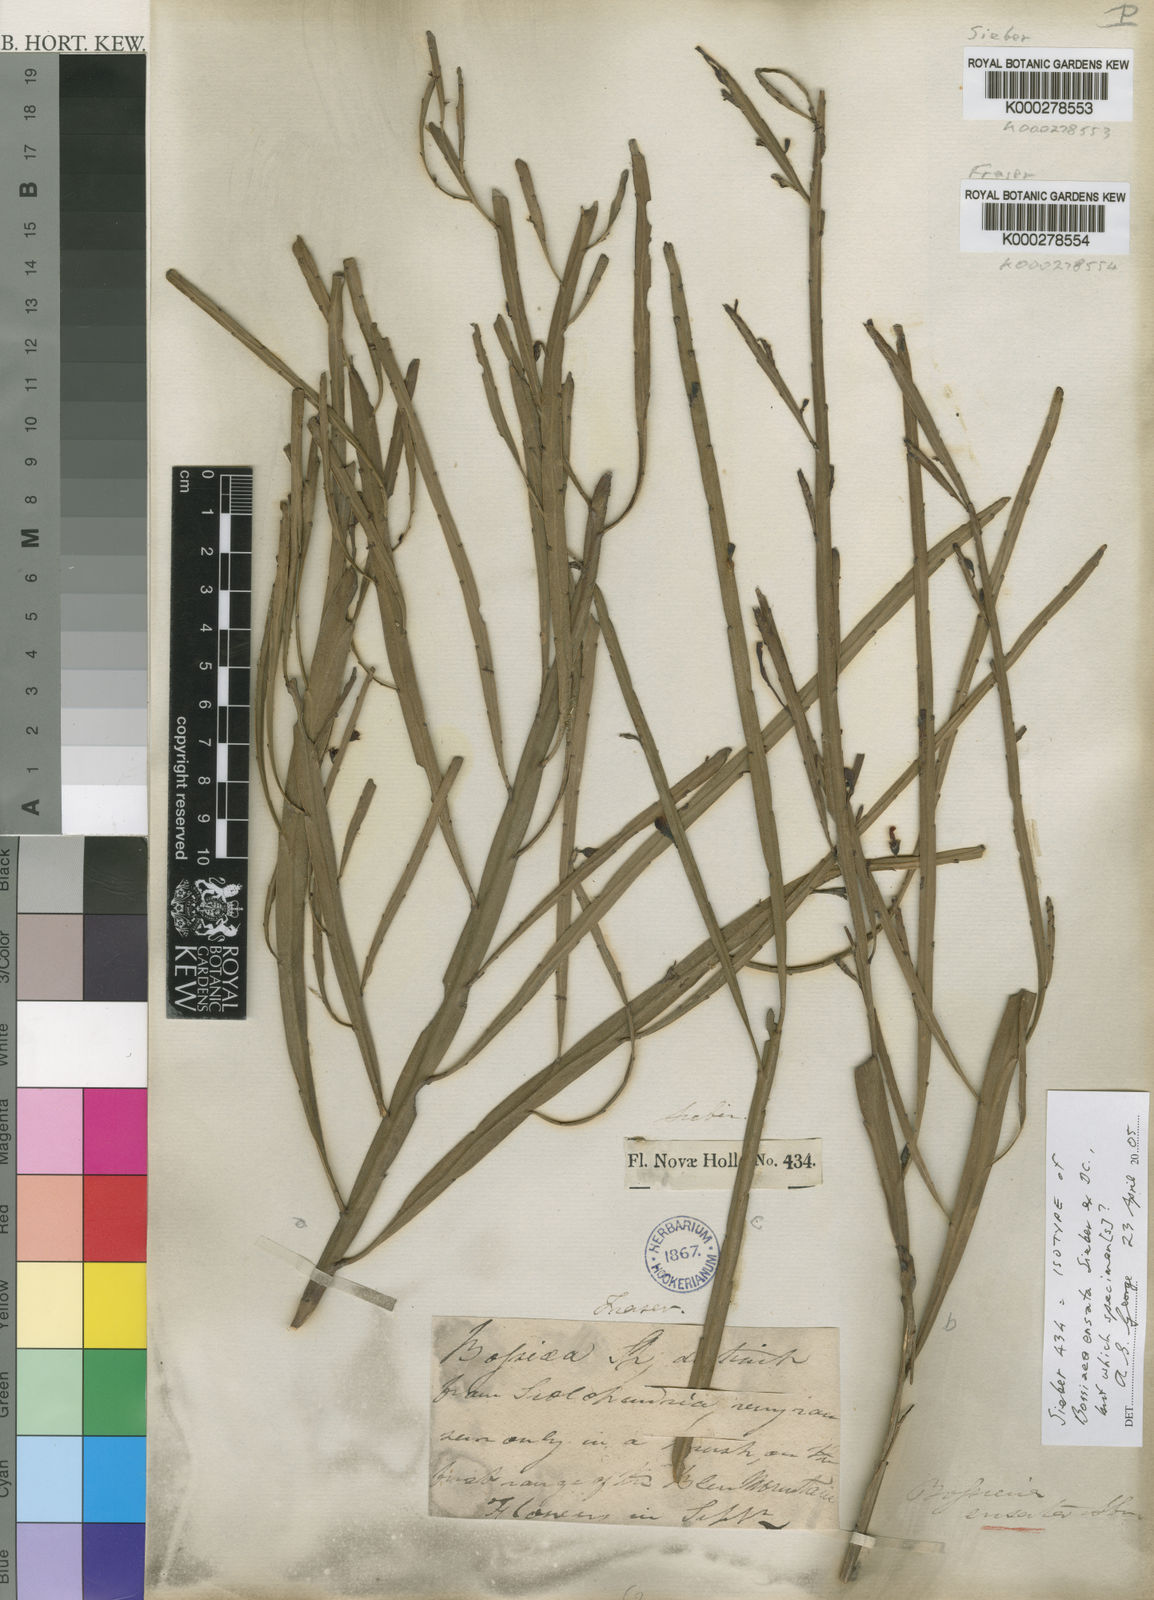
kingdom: Plantae
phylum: Tracheophyta
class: Magnoliopsida
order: Fabales
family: Fabaceae
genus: Bossiaea
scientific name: Bossiaea ensata
